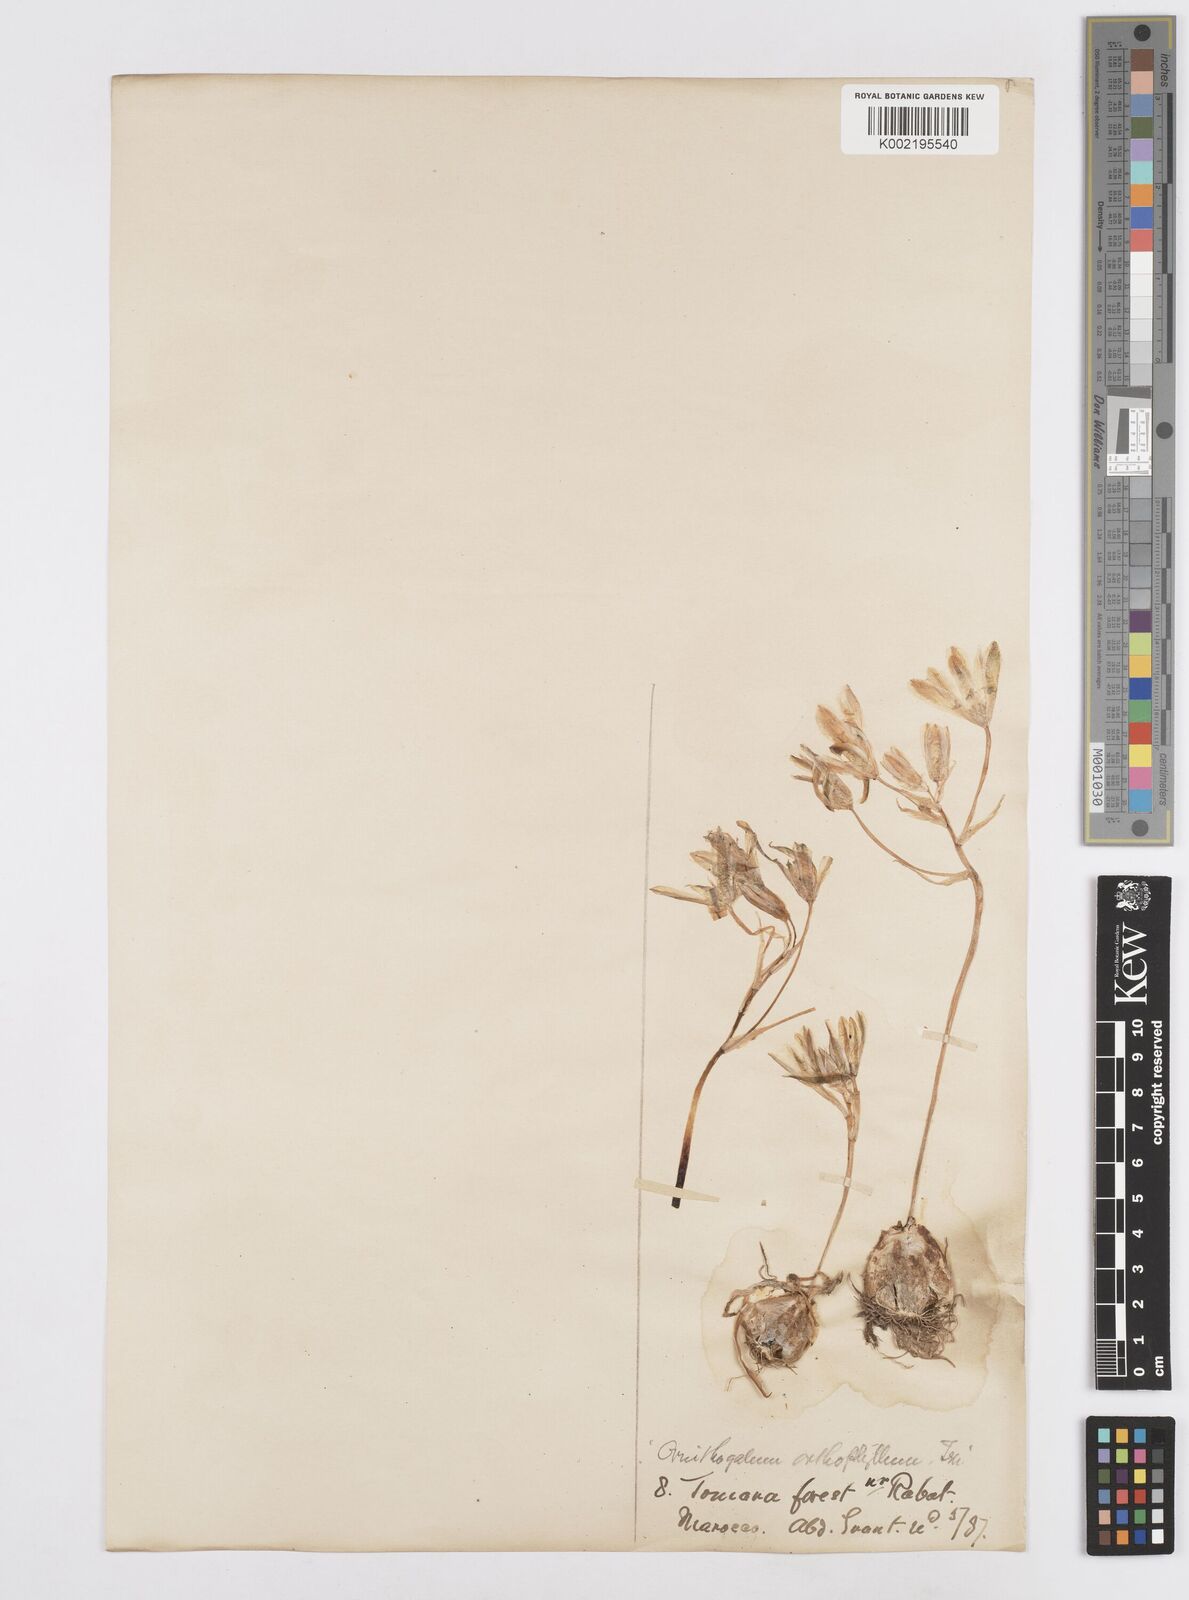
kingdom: Plantae
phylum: Tracheophyta
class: Liliopsida
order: Asparagales
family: Asparagaceae
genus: Ornithogalum
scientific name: Ornithogalum baeticum
